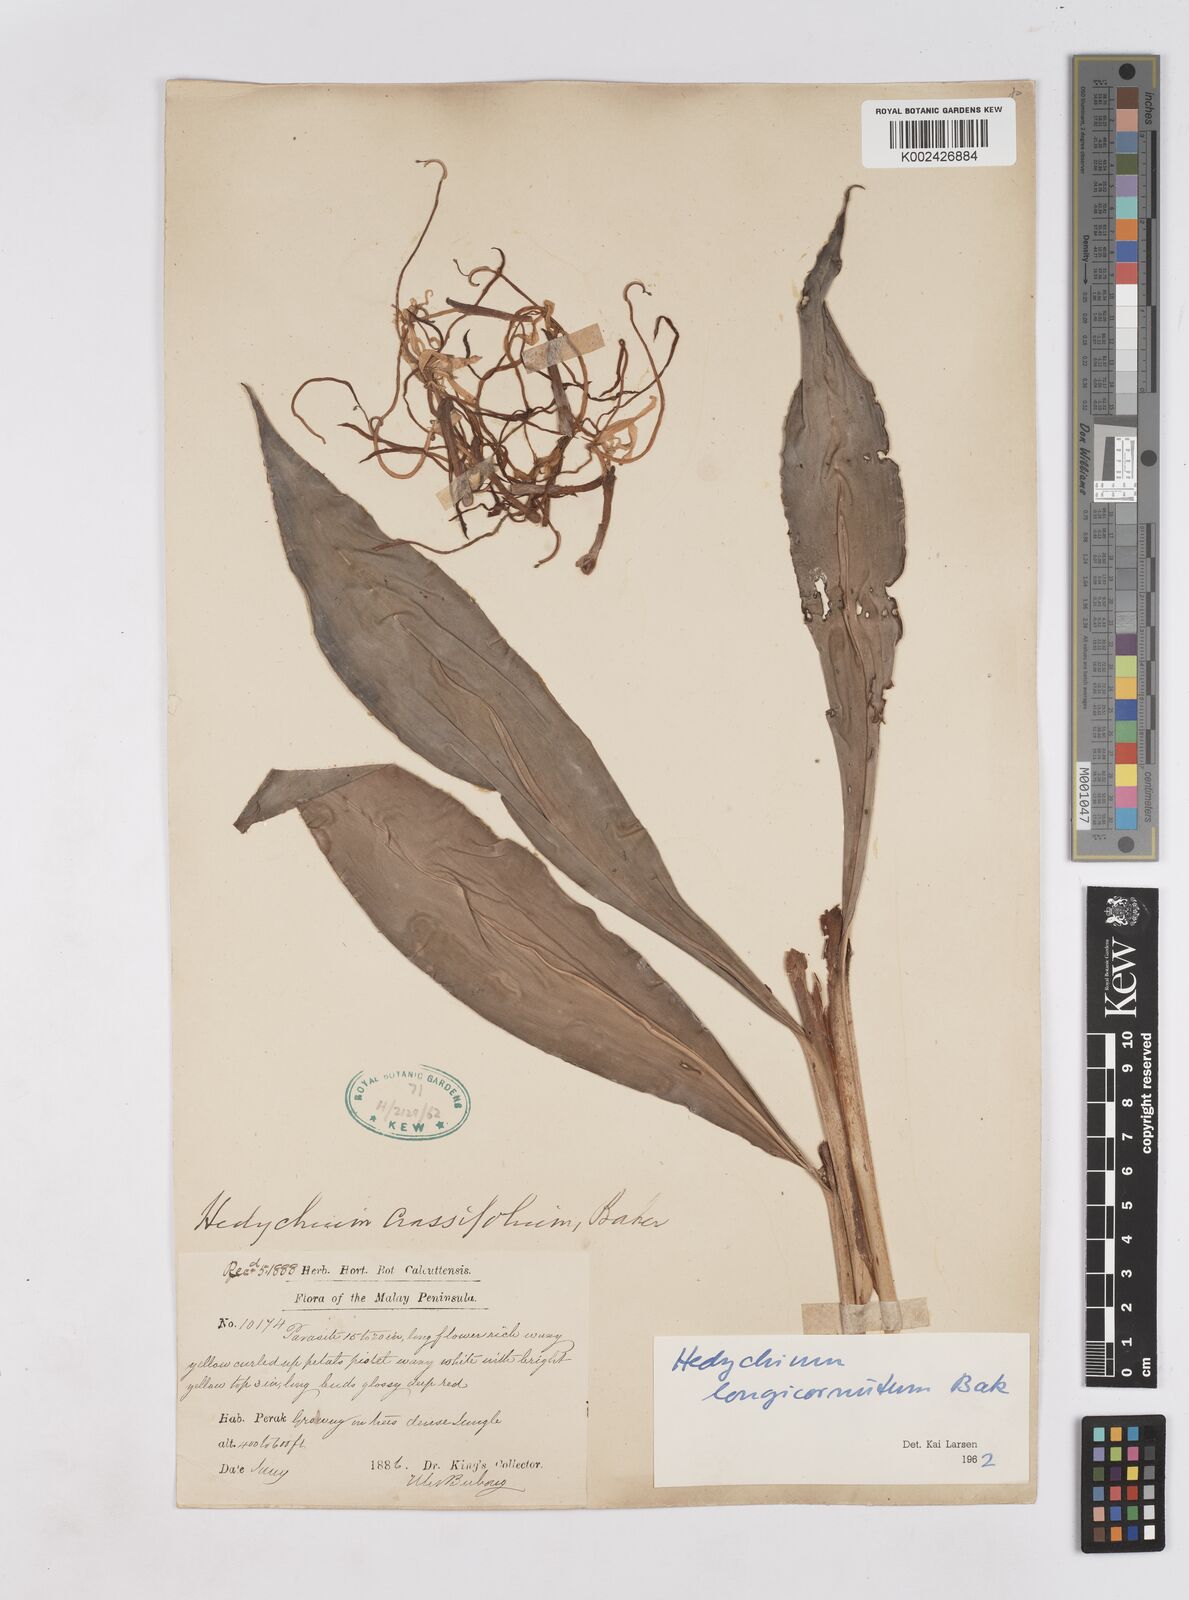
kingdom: Plantae
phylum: Tracheophyta
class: Liliopsida
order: Zingiberales
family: Zingiberaceae
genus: Hedychium
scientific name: Hedychium longicornutum
